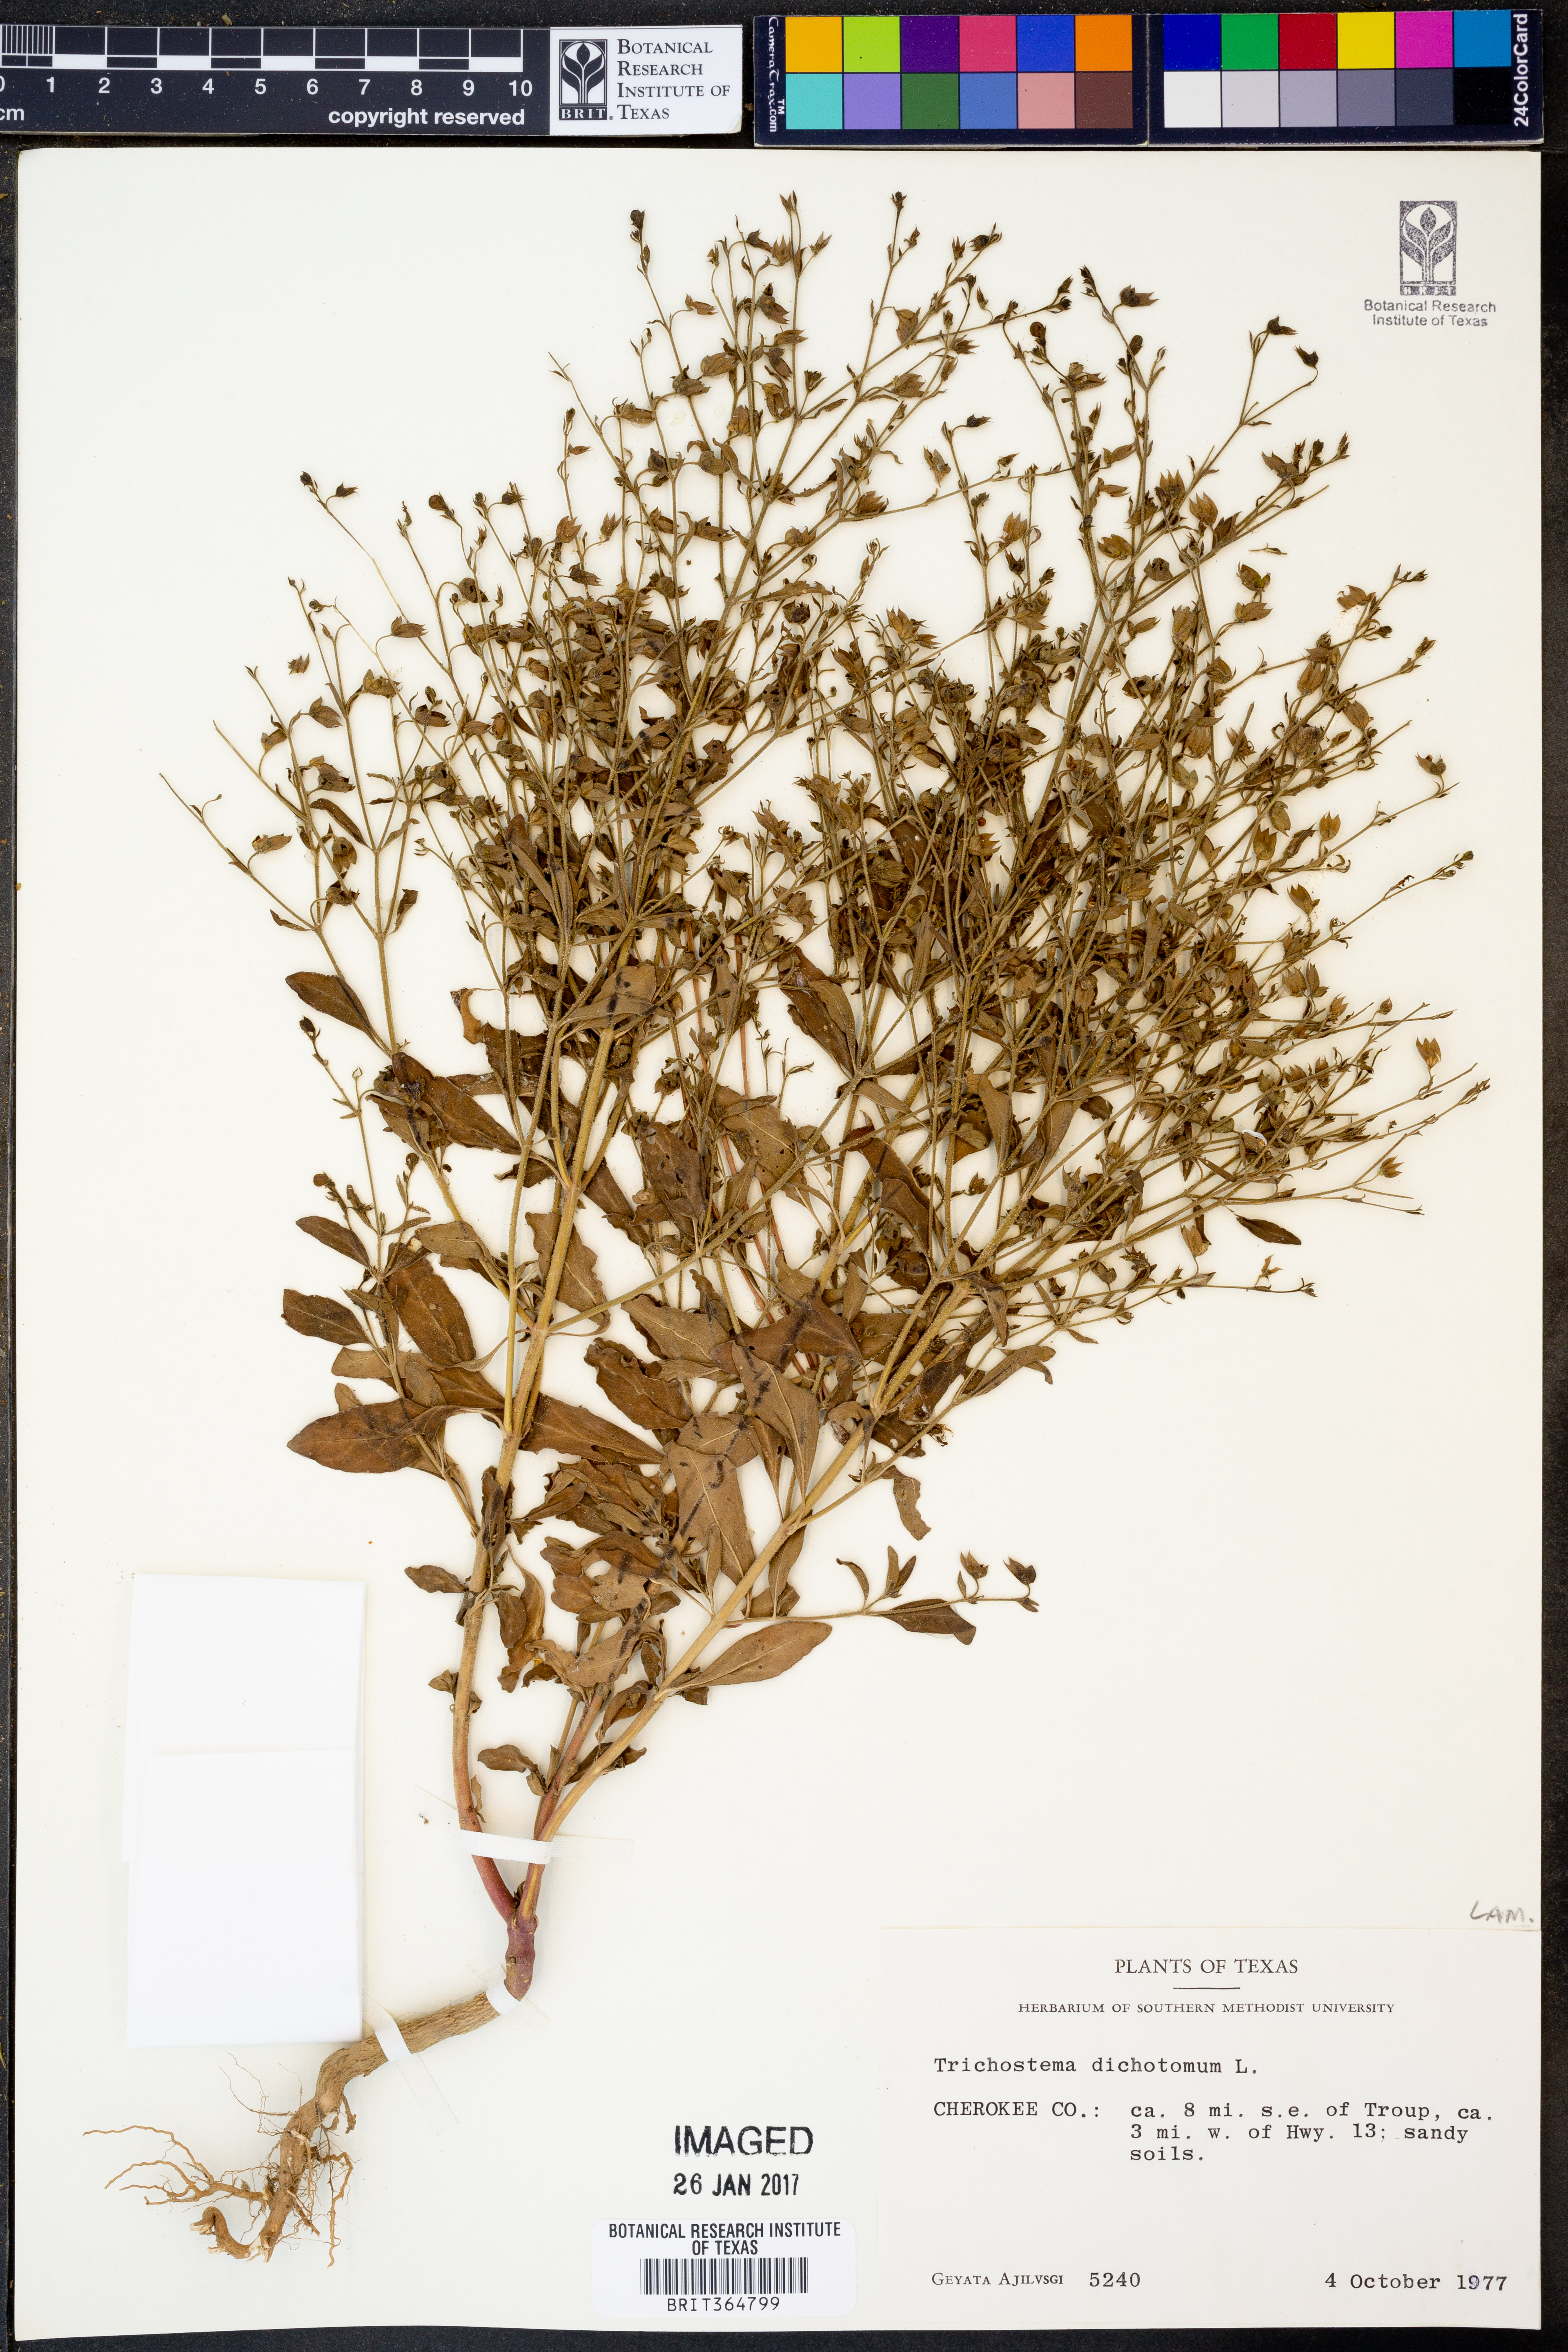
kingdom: Plantae
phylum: Tracheophyta
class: Magnoliopsida
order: Lamiales
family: Lamiaceae
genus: Trichostema
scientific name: Trichostema dichotomum
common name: Bastard pennyroyal
